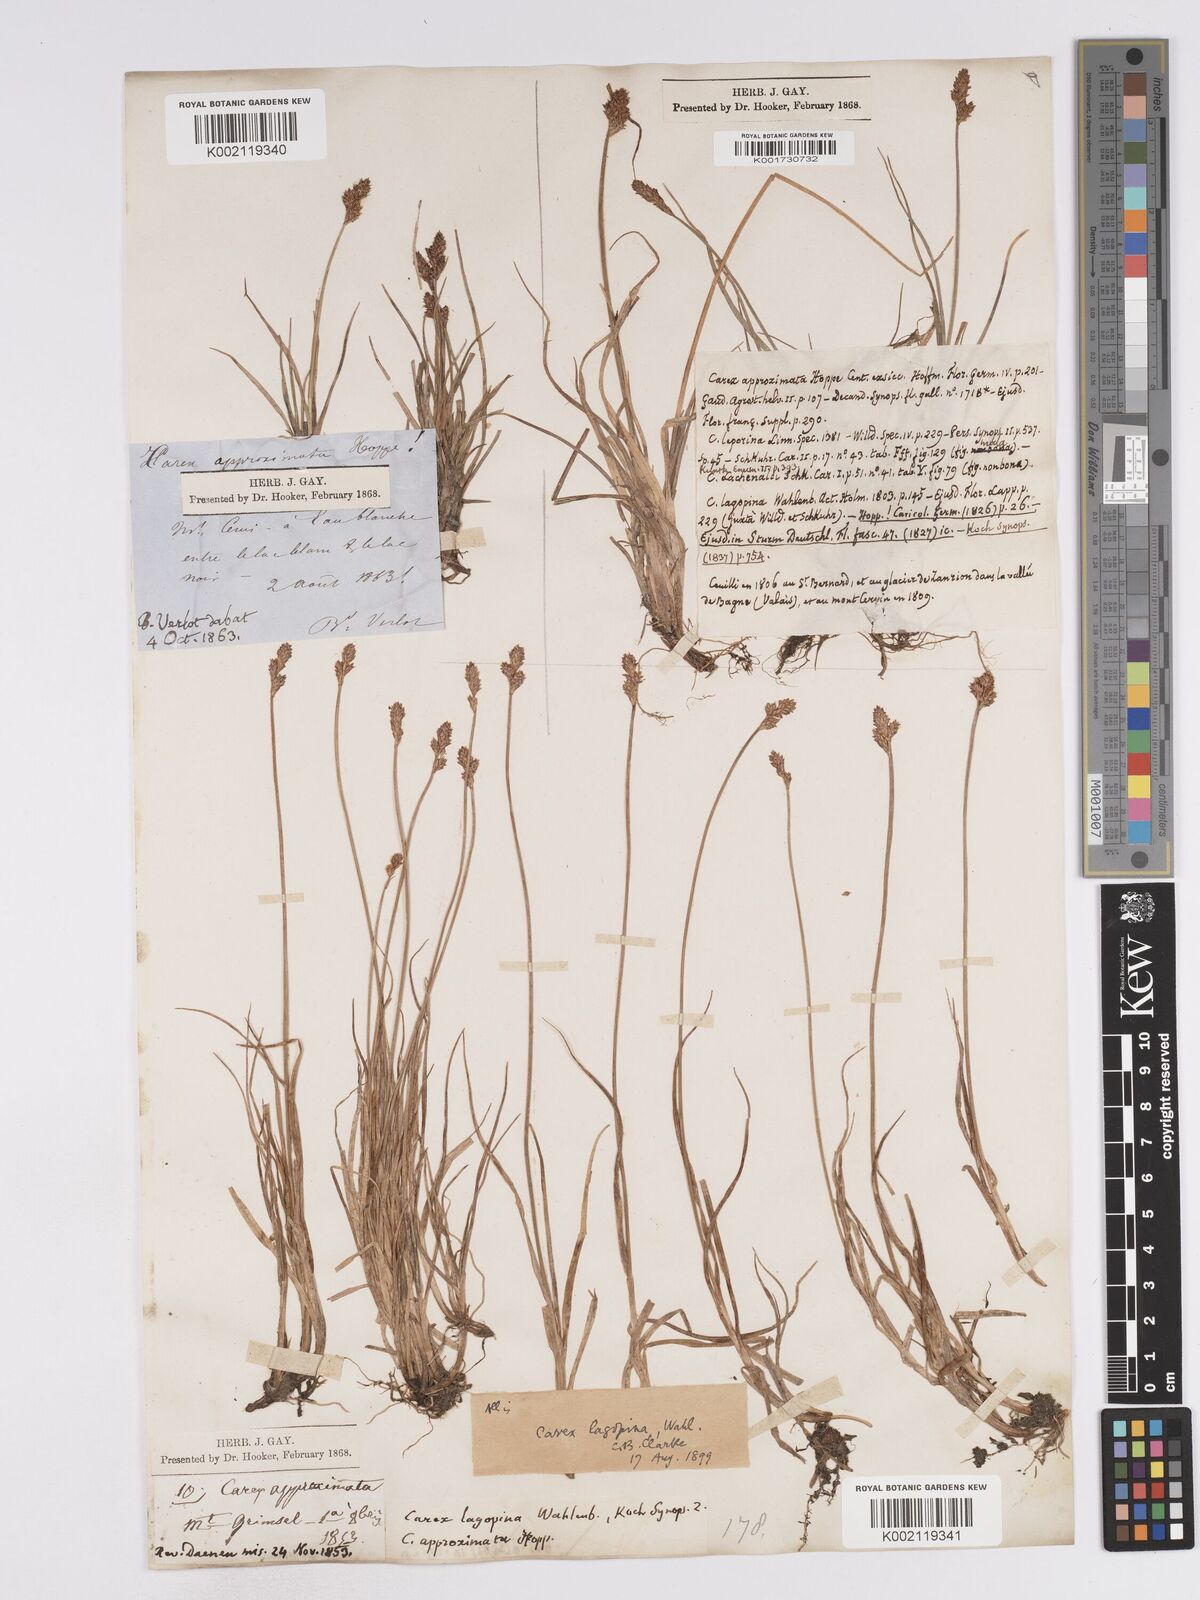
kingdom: Plantae
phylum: Tracheophyta
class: Liliopsida
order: Poales
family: Cyperaceae
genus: Carex
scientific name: Carex lachenalii
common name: Hare's-foot sedge
